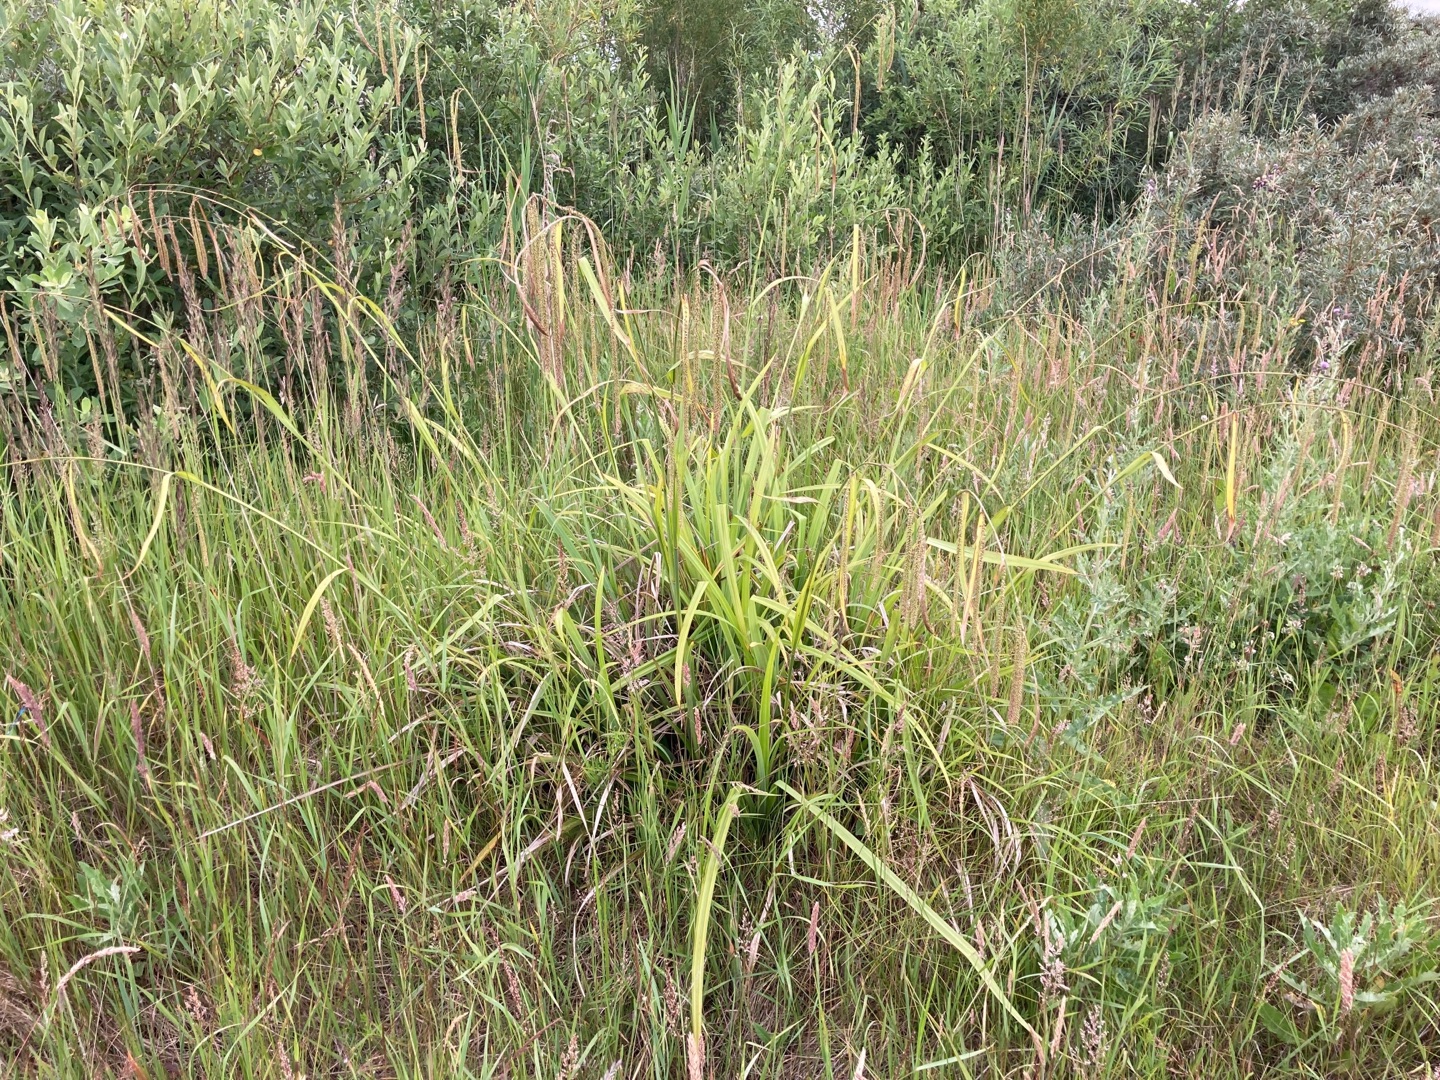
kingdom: Plantae
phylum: Tracheophyta
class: Liliopsida
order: Poales
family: Cyperaceae
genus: Carex
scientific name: Carex pendula
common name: Kæmpe-star
